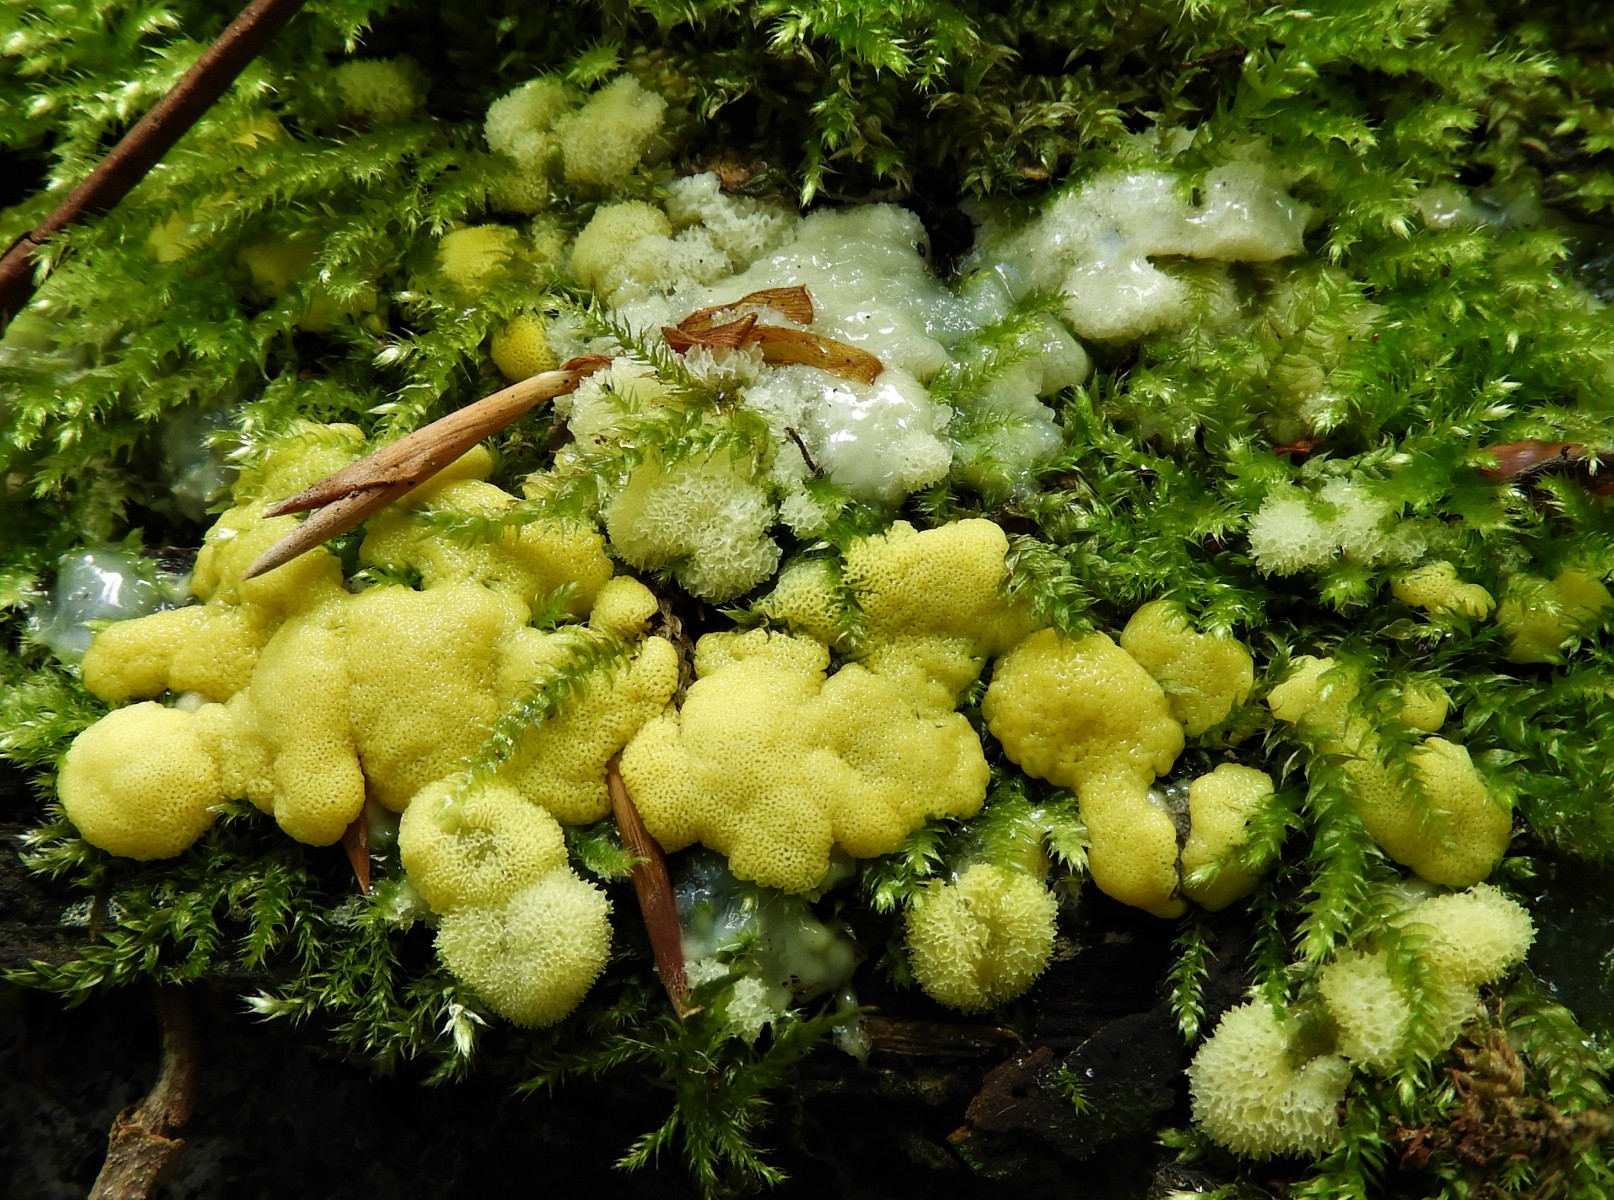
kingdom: Protozoa
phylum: Mycetozoa
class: Protosteliomycetes
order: Ceratiomyxales
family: Ceratiomyxaceae
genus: Ceratiomyxa
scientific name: Ceratiomyxa fruticulosa
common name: Honeycomb coral slime mold
